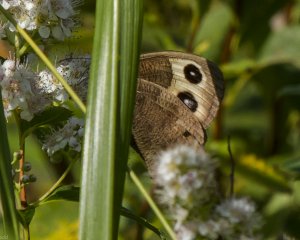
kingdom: Animalia
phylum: Arthropoda
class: Insecta
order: Lepidoptera
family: Nymphalidae
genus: Cercyonis
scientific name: Cercyonis pegala
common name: Common Wood-Nymph
